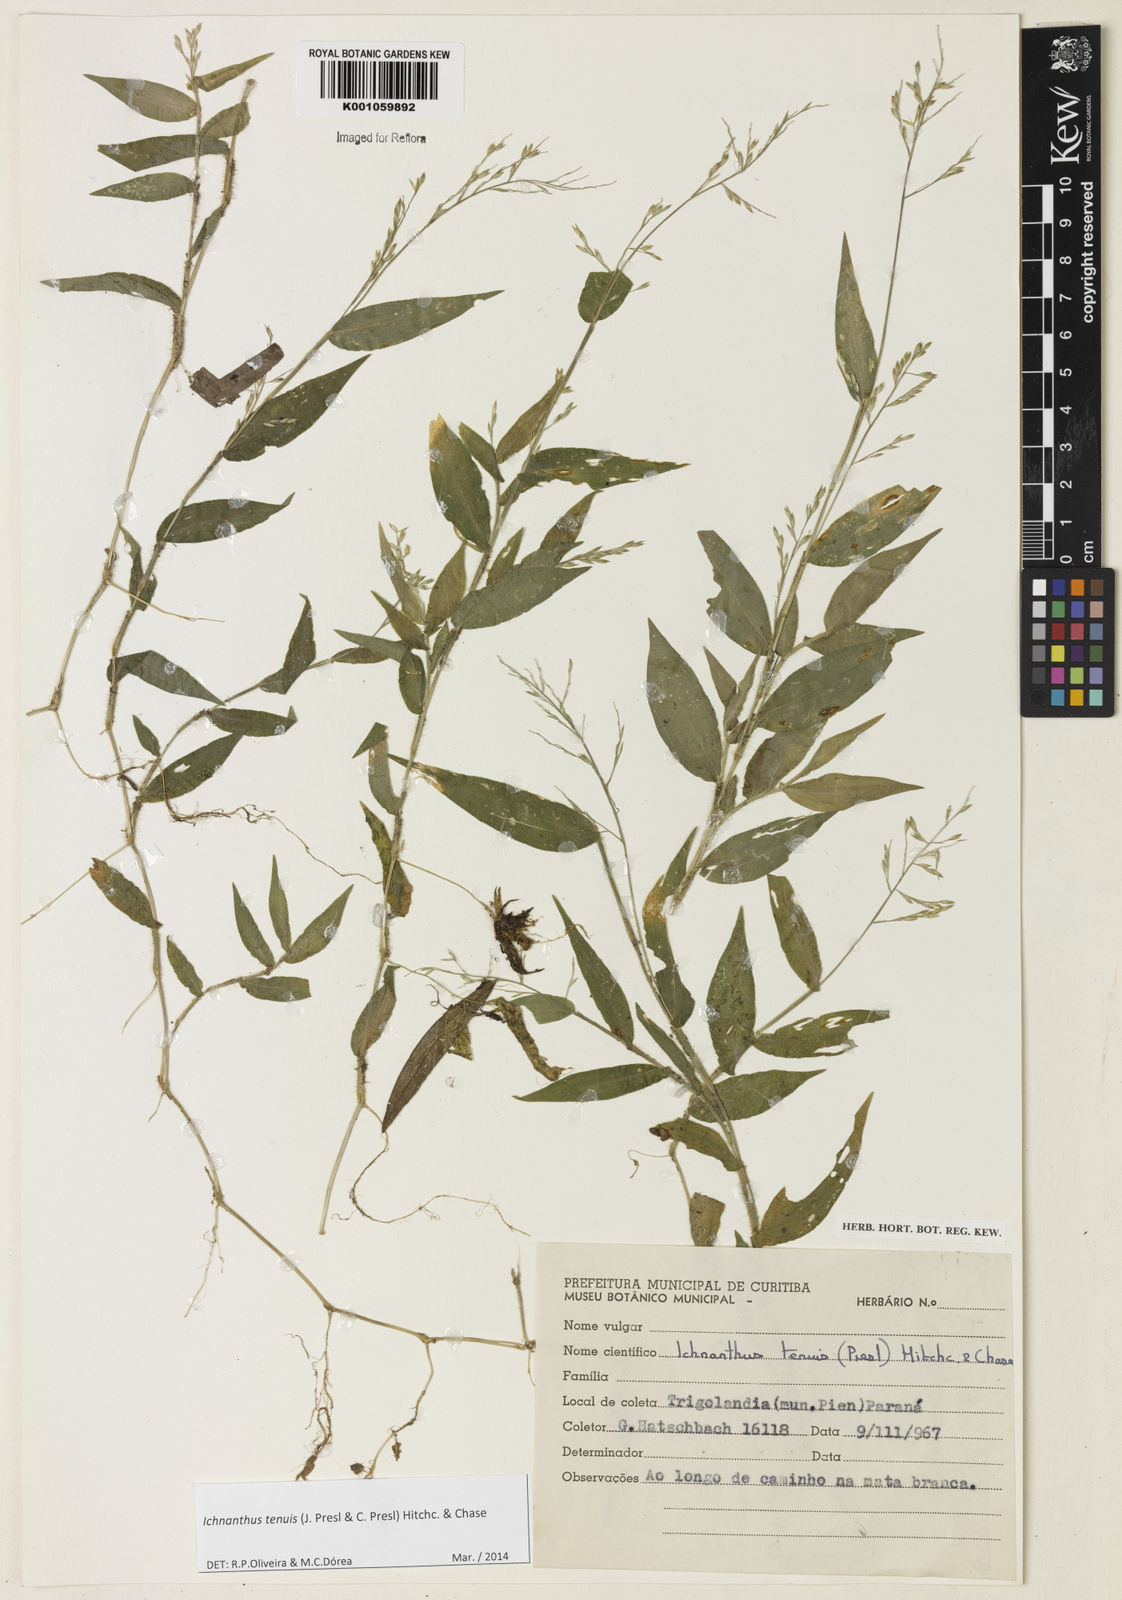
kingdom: Plantae
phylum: Tracheophyta
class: Liliopsida
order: Poales
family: Poaceae
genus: Ichnanthus
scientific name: Ichnanthus tenuis
